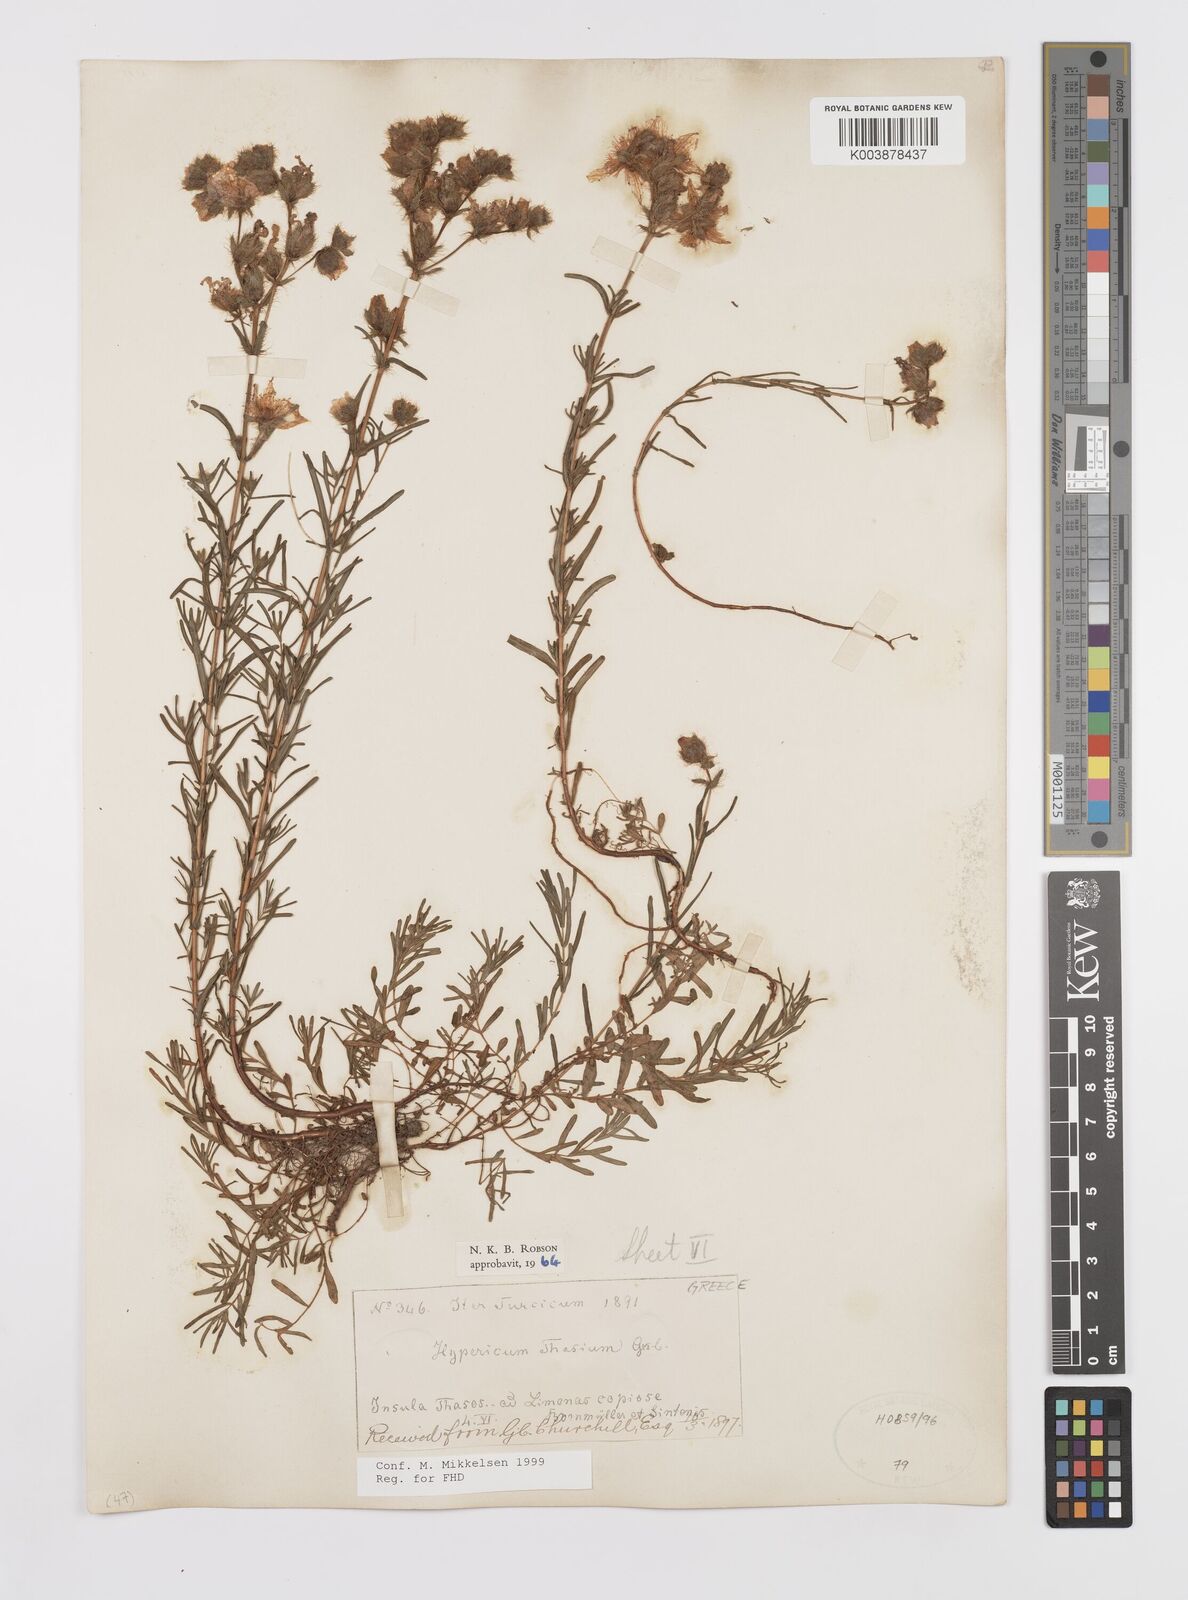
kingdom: Plantae
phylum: Tracheophyta
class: Magnoliopsida
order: Malpighiales
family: Hypericaceae
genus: Hypericum
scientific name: Hypericum thasium
